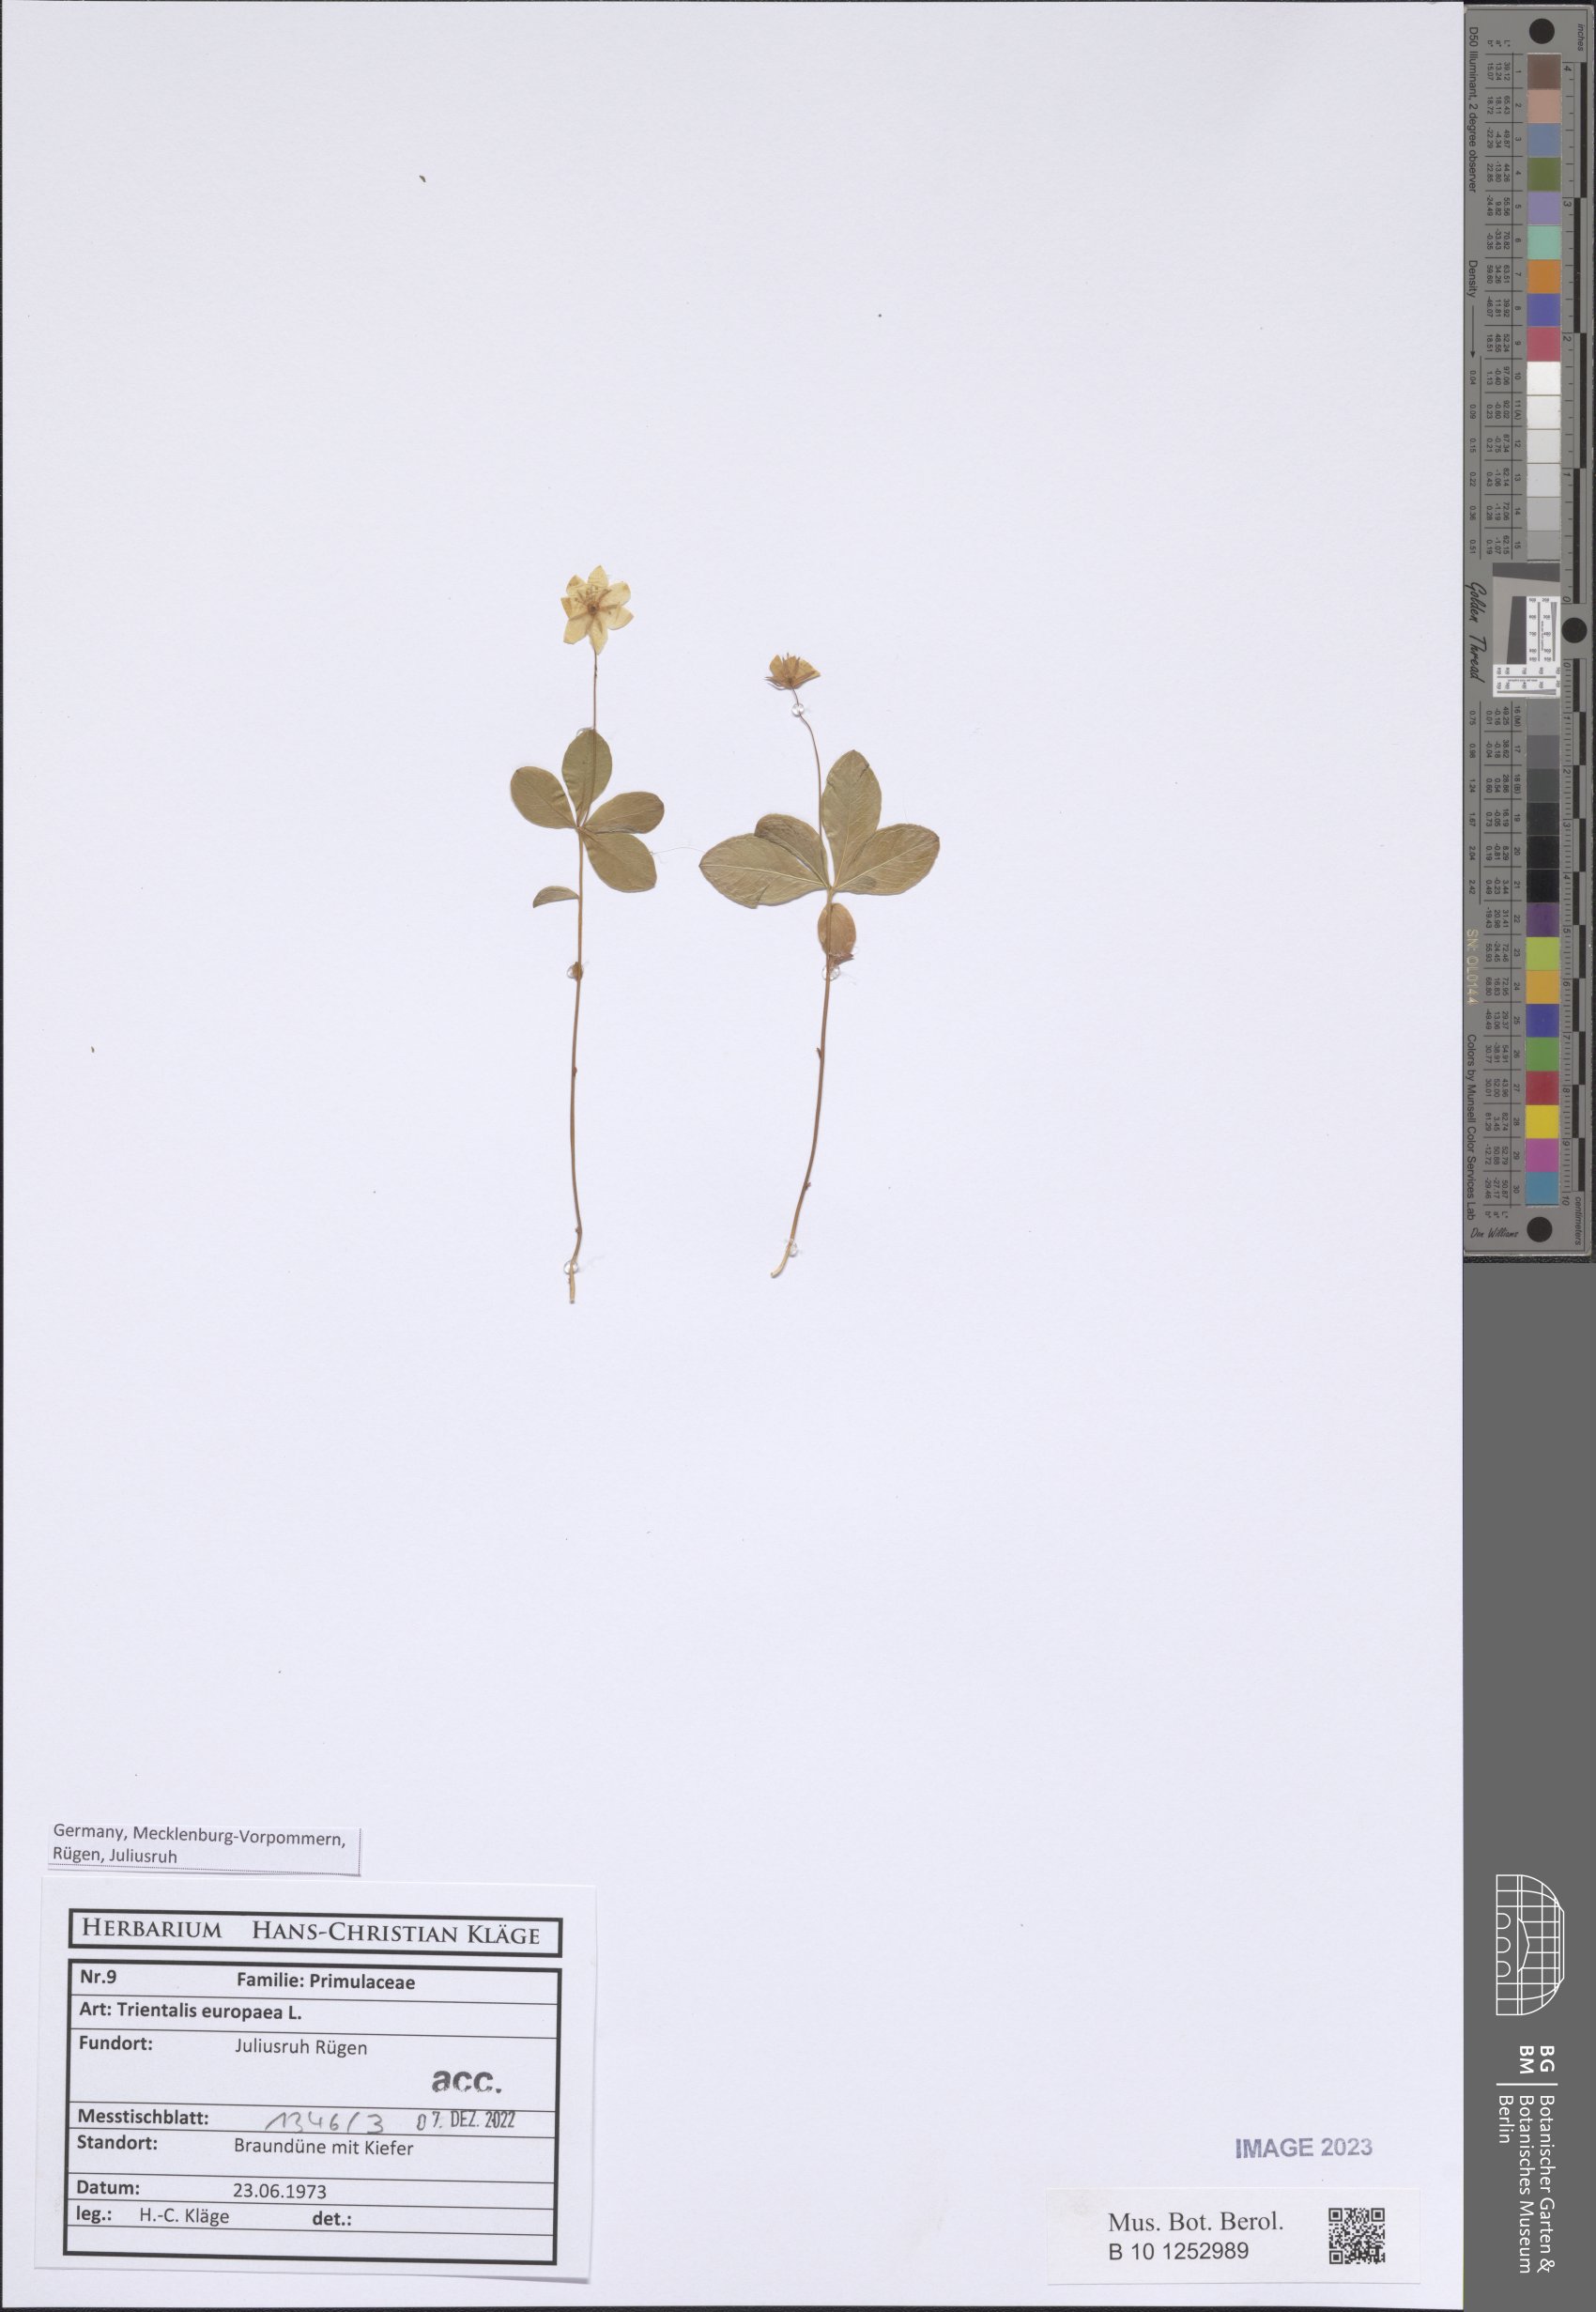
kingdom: Plantae
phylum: Tracheophyta
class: Magnoliopsida
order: Ericales
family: Primulaceae
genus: Lysimachia
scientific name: Lysimachia europaea
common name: Arctic starflower
